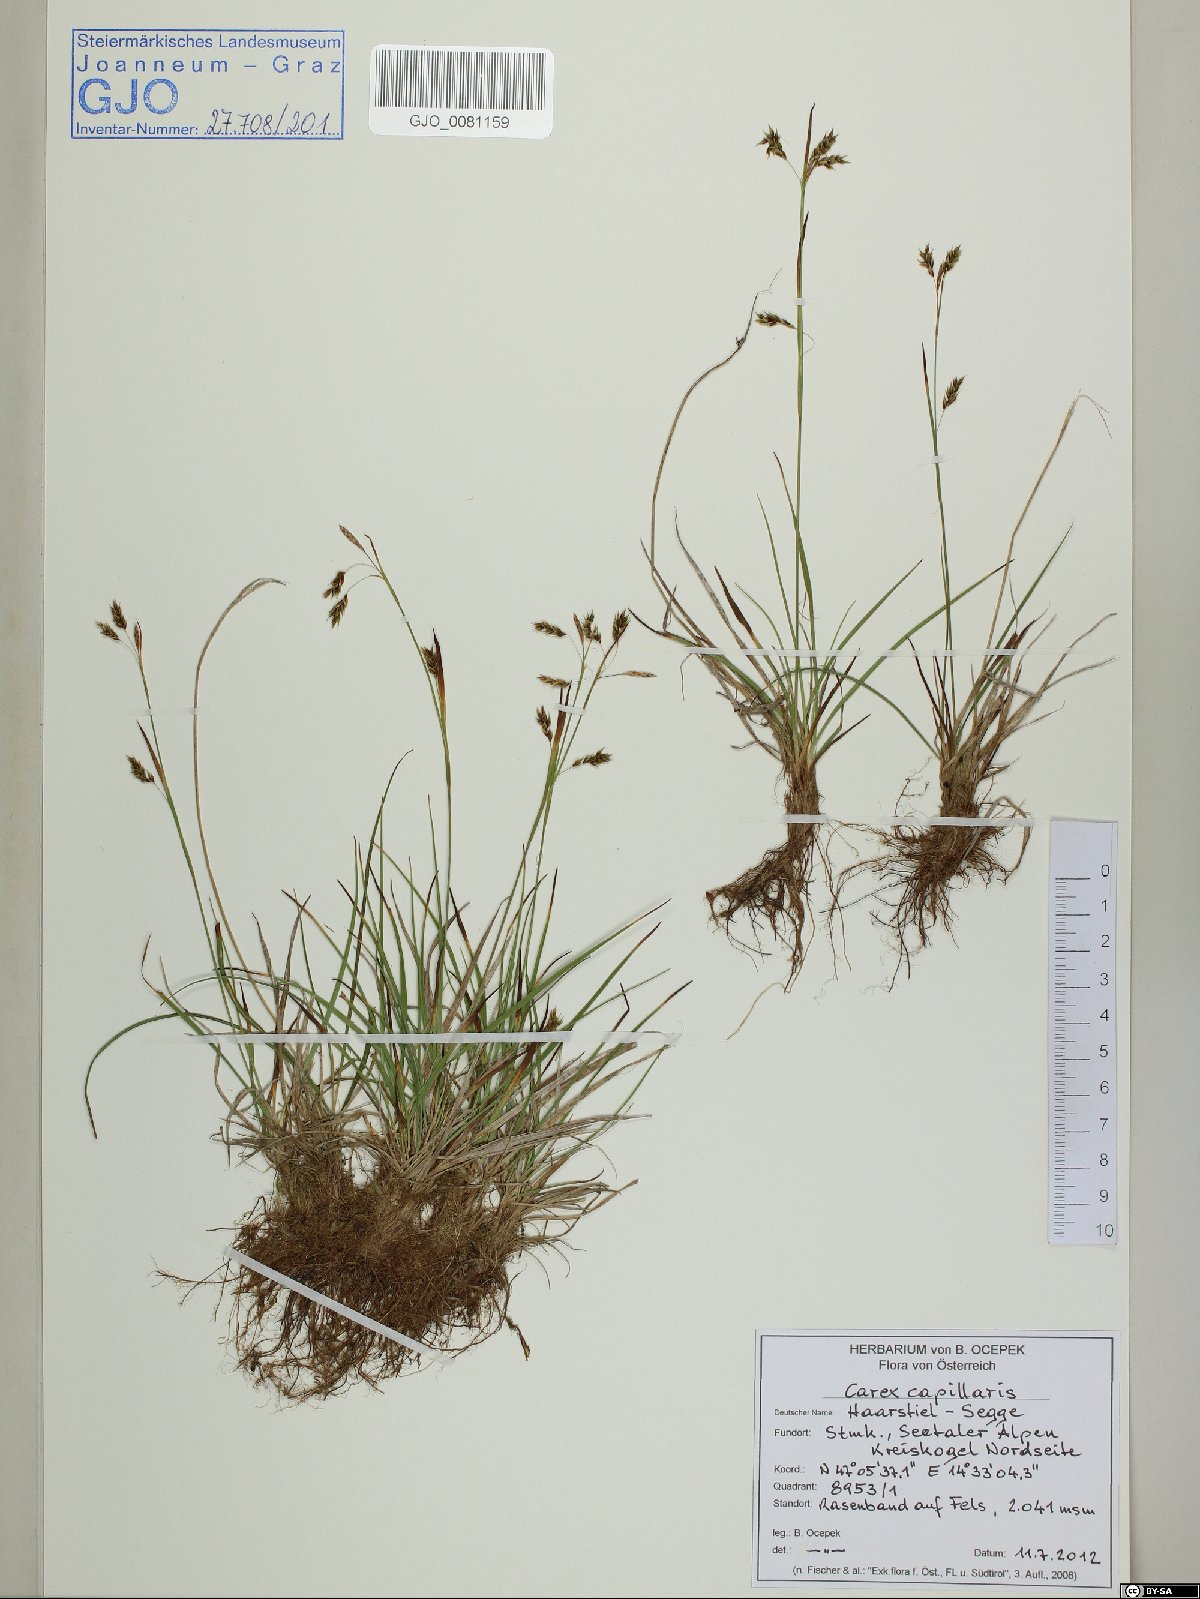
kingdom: Plantae
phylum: Tracheophyta
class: Liliopsida
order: Poales
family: Cyperaceae
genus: Carex
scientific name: Carex capillaris
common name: Hair sedge
